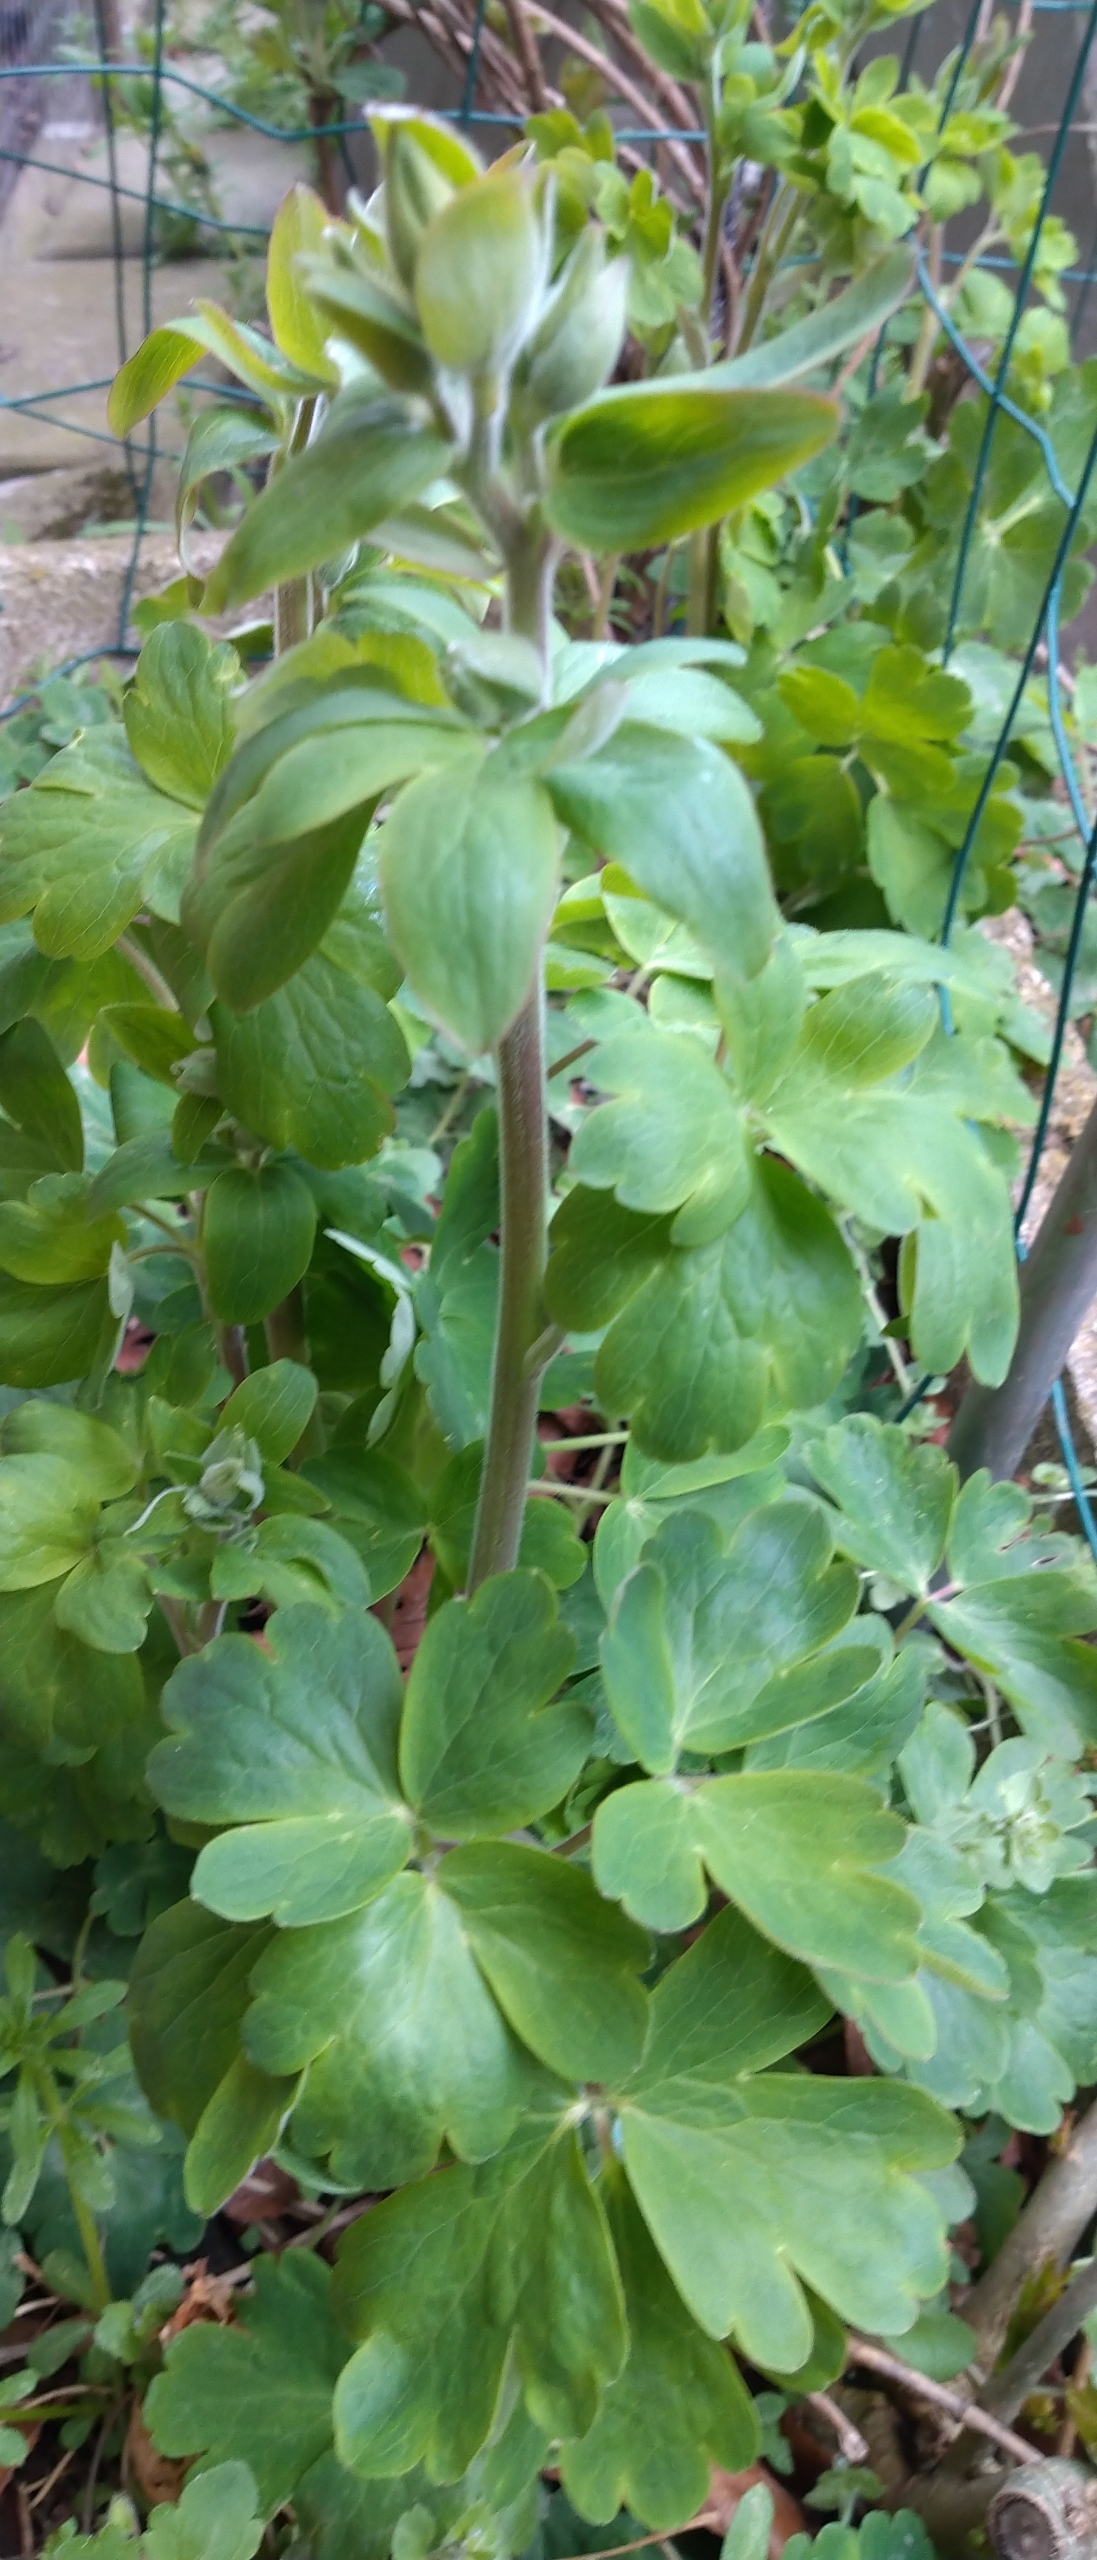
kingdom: Plantae
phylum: Tracheophyta
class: Magnoliopsida
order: Ranunculales
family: Ranunculaceae
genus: Aquilegia
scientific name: Aquilegia vulgaris
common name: Akeleje
